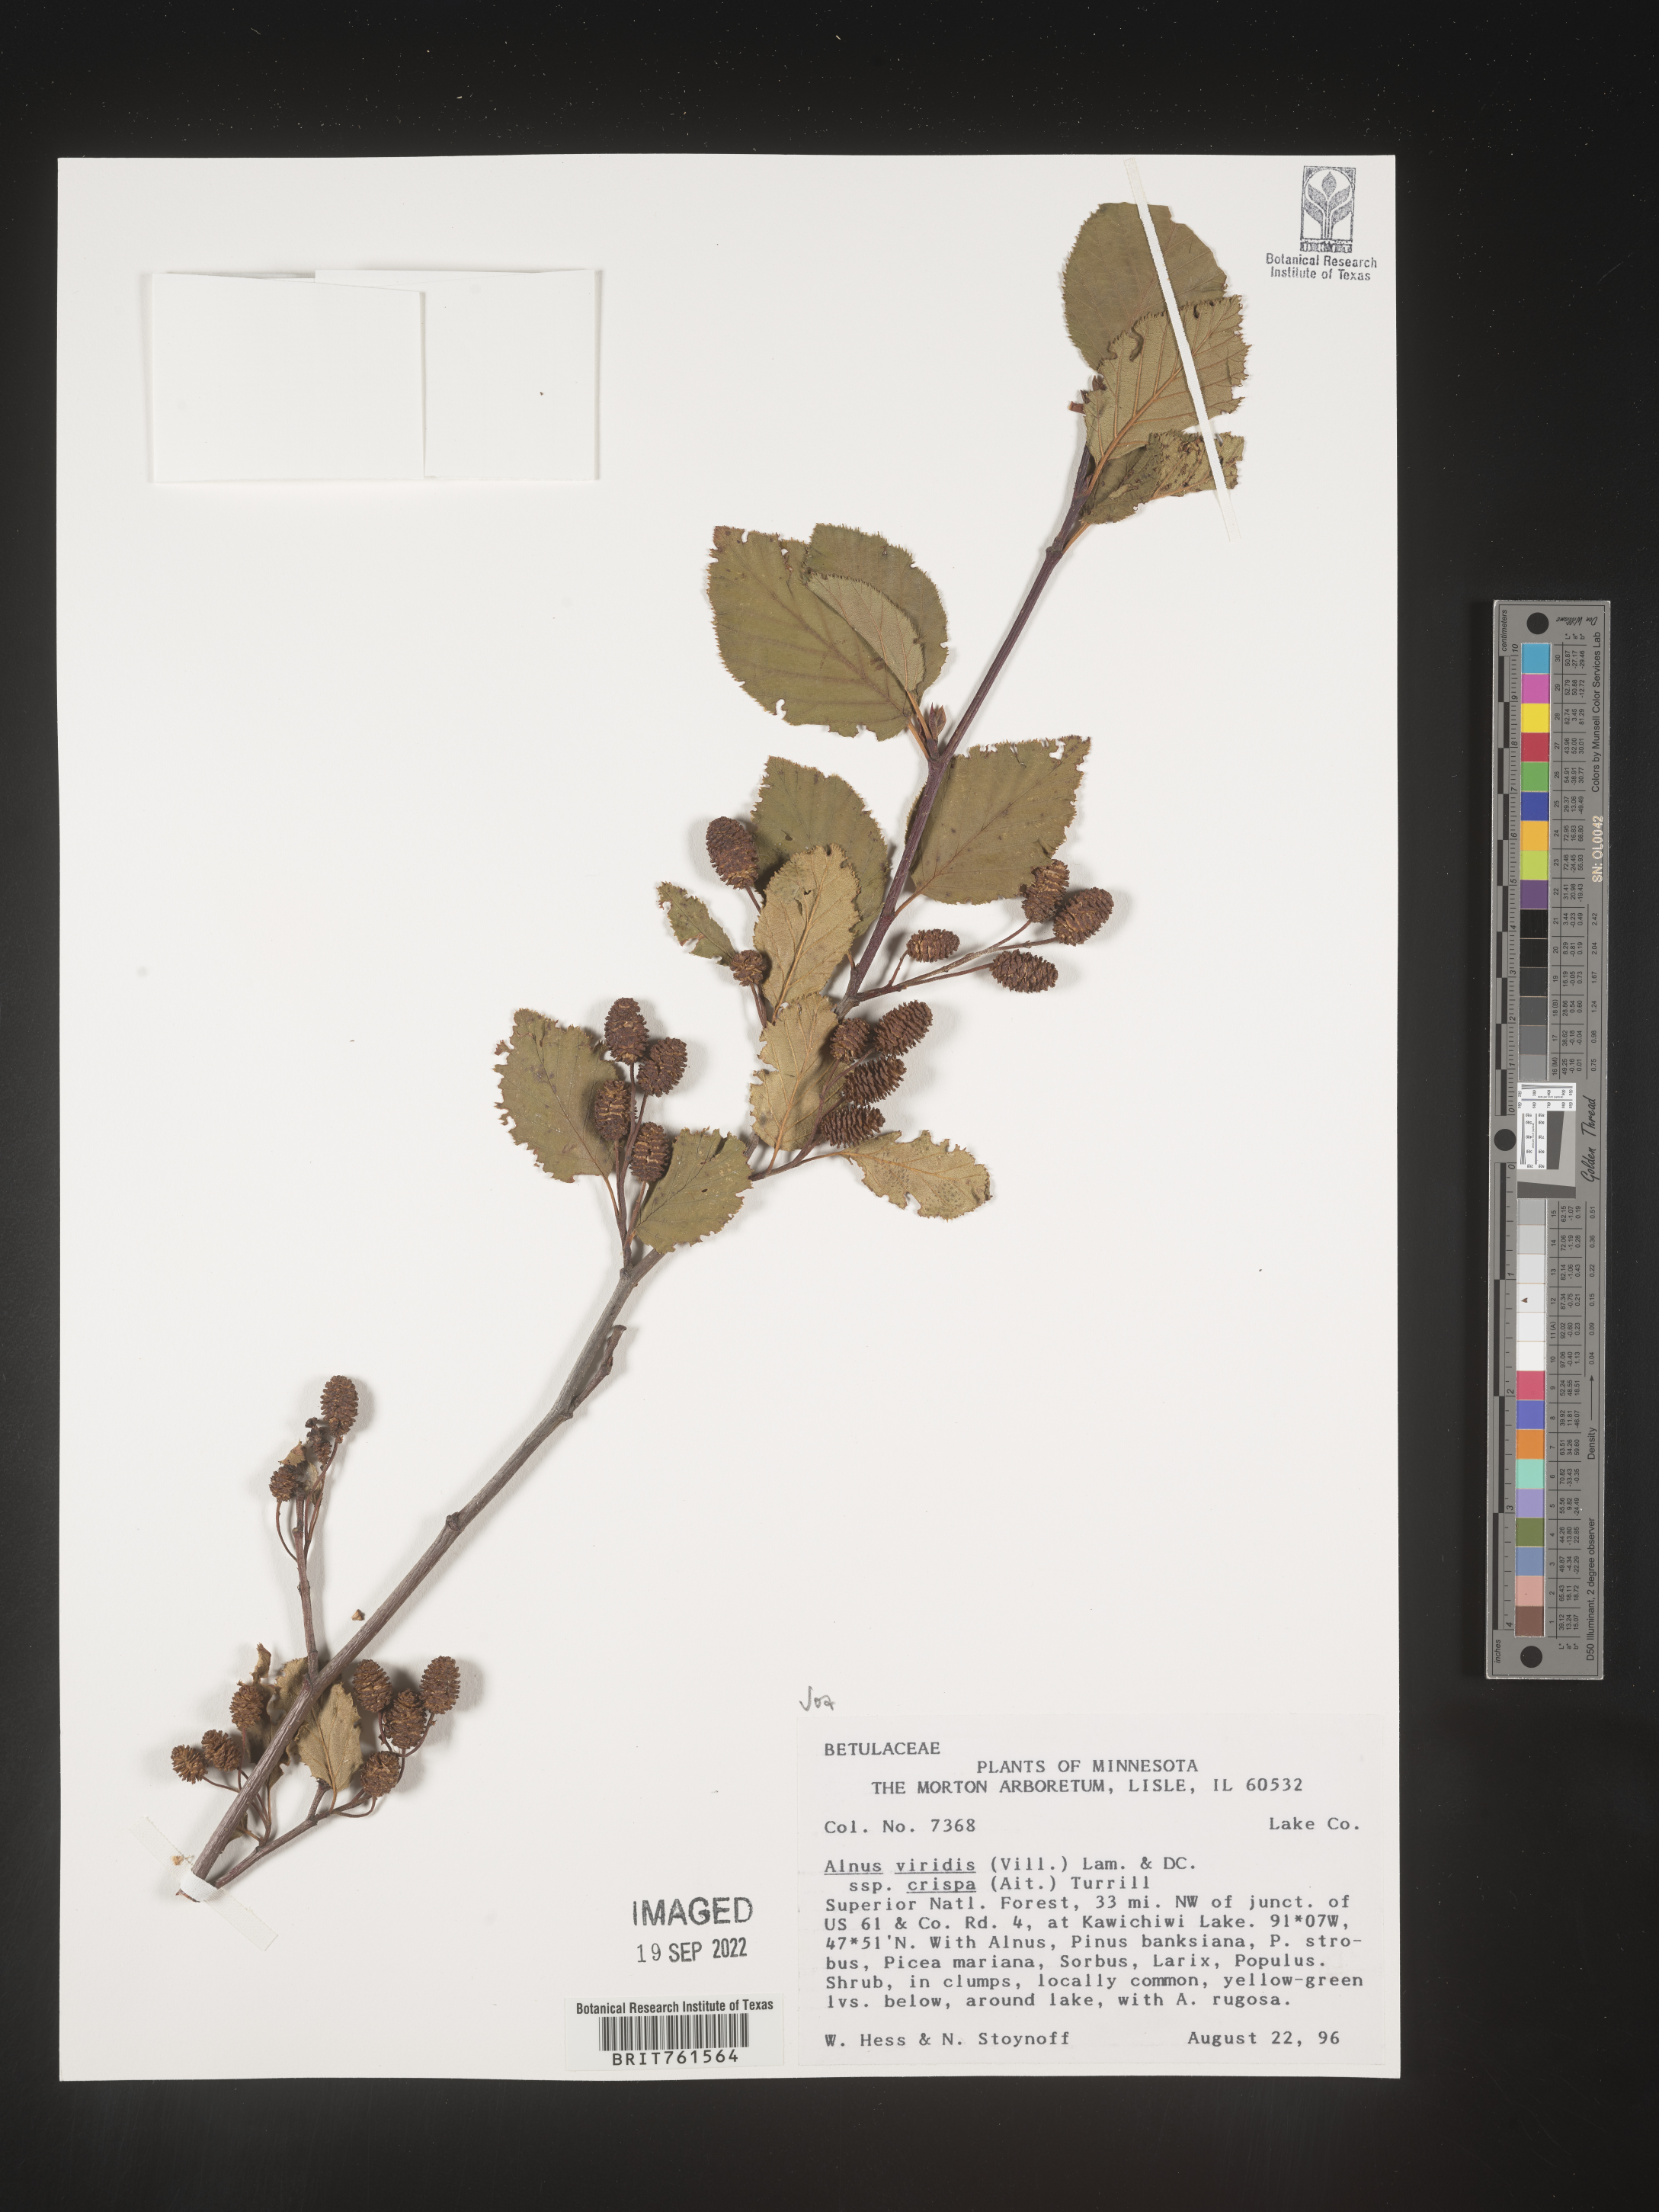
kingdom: Plantae
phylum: Tracheophyta
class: Magnoliopsida
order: Fagales
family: Betulaceae
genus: Alnus
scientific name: Alnus alnobetula
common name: Green alder
